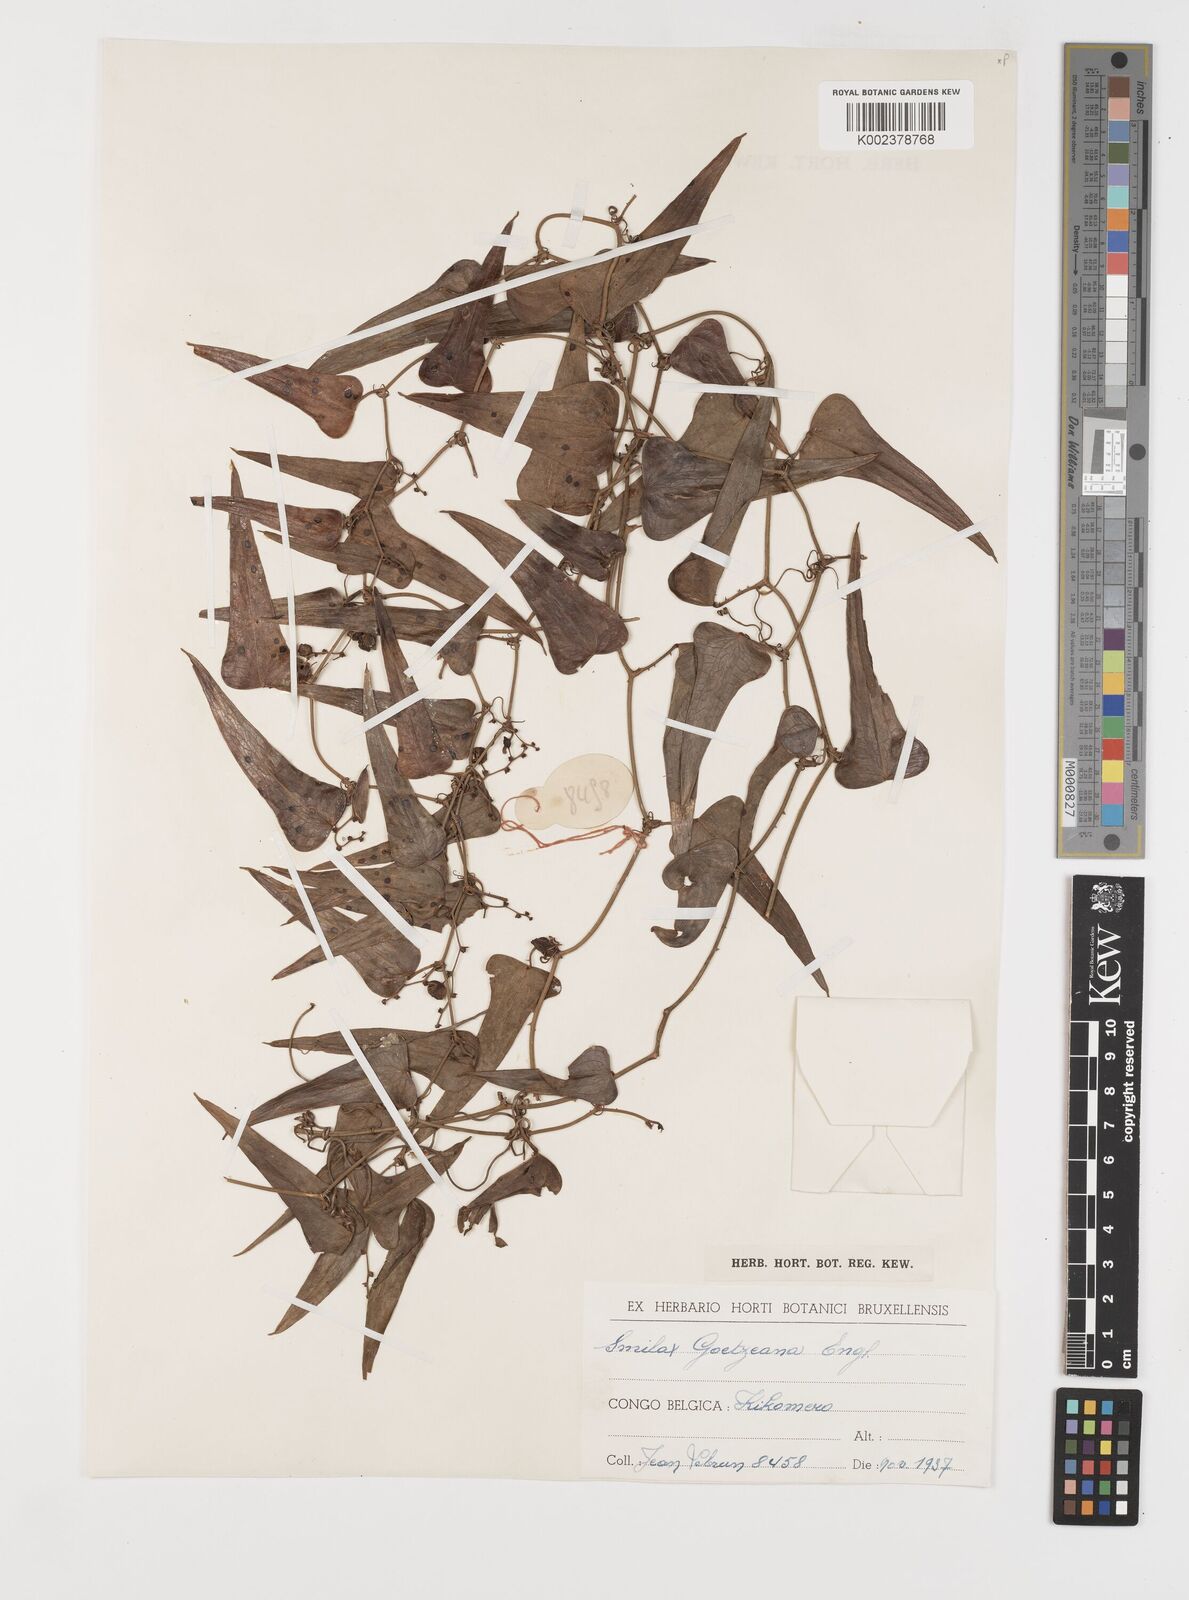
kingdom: Plantae
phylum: Tracheophyta
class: Liliopsida
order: Liliales
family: Smilacaceae
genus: Smilax
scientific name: Smilax aspera
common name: Common smilax
